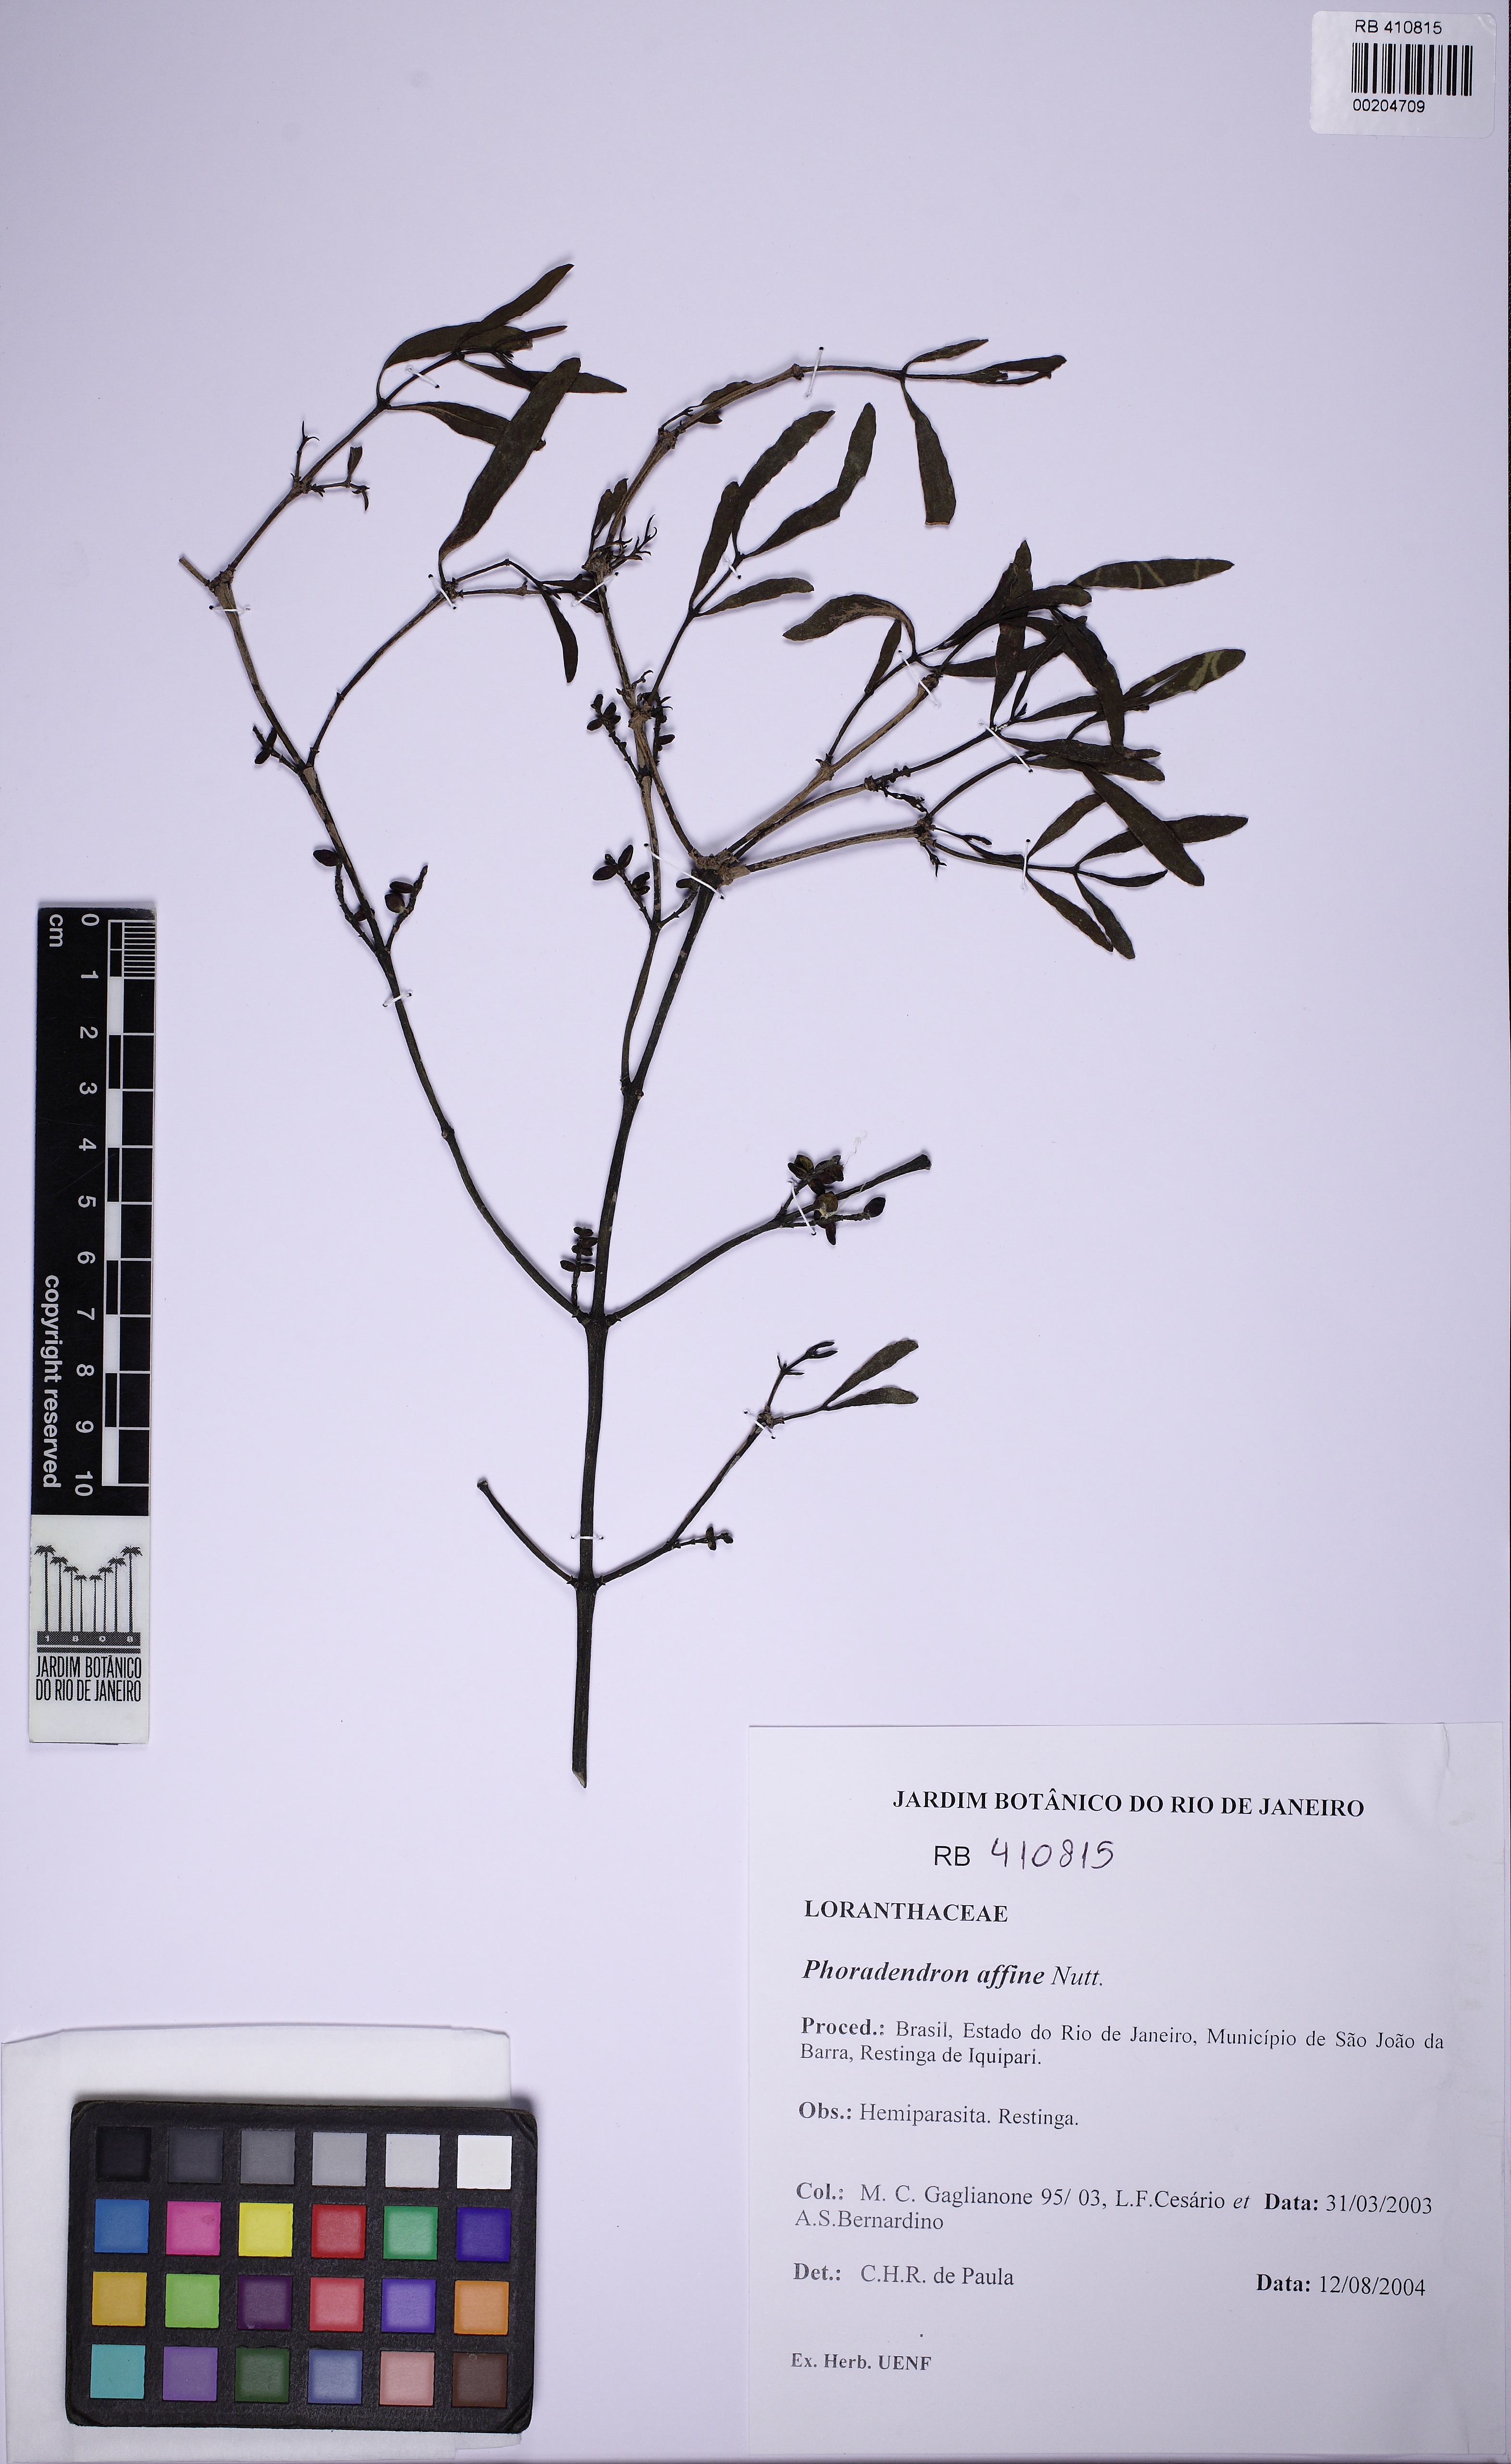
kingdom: Plantae
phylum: Tracheophyta
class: Magnoliopsida
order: Santalales
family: Viscaceae
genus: Phoradendron
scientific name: Phoradendron affine
